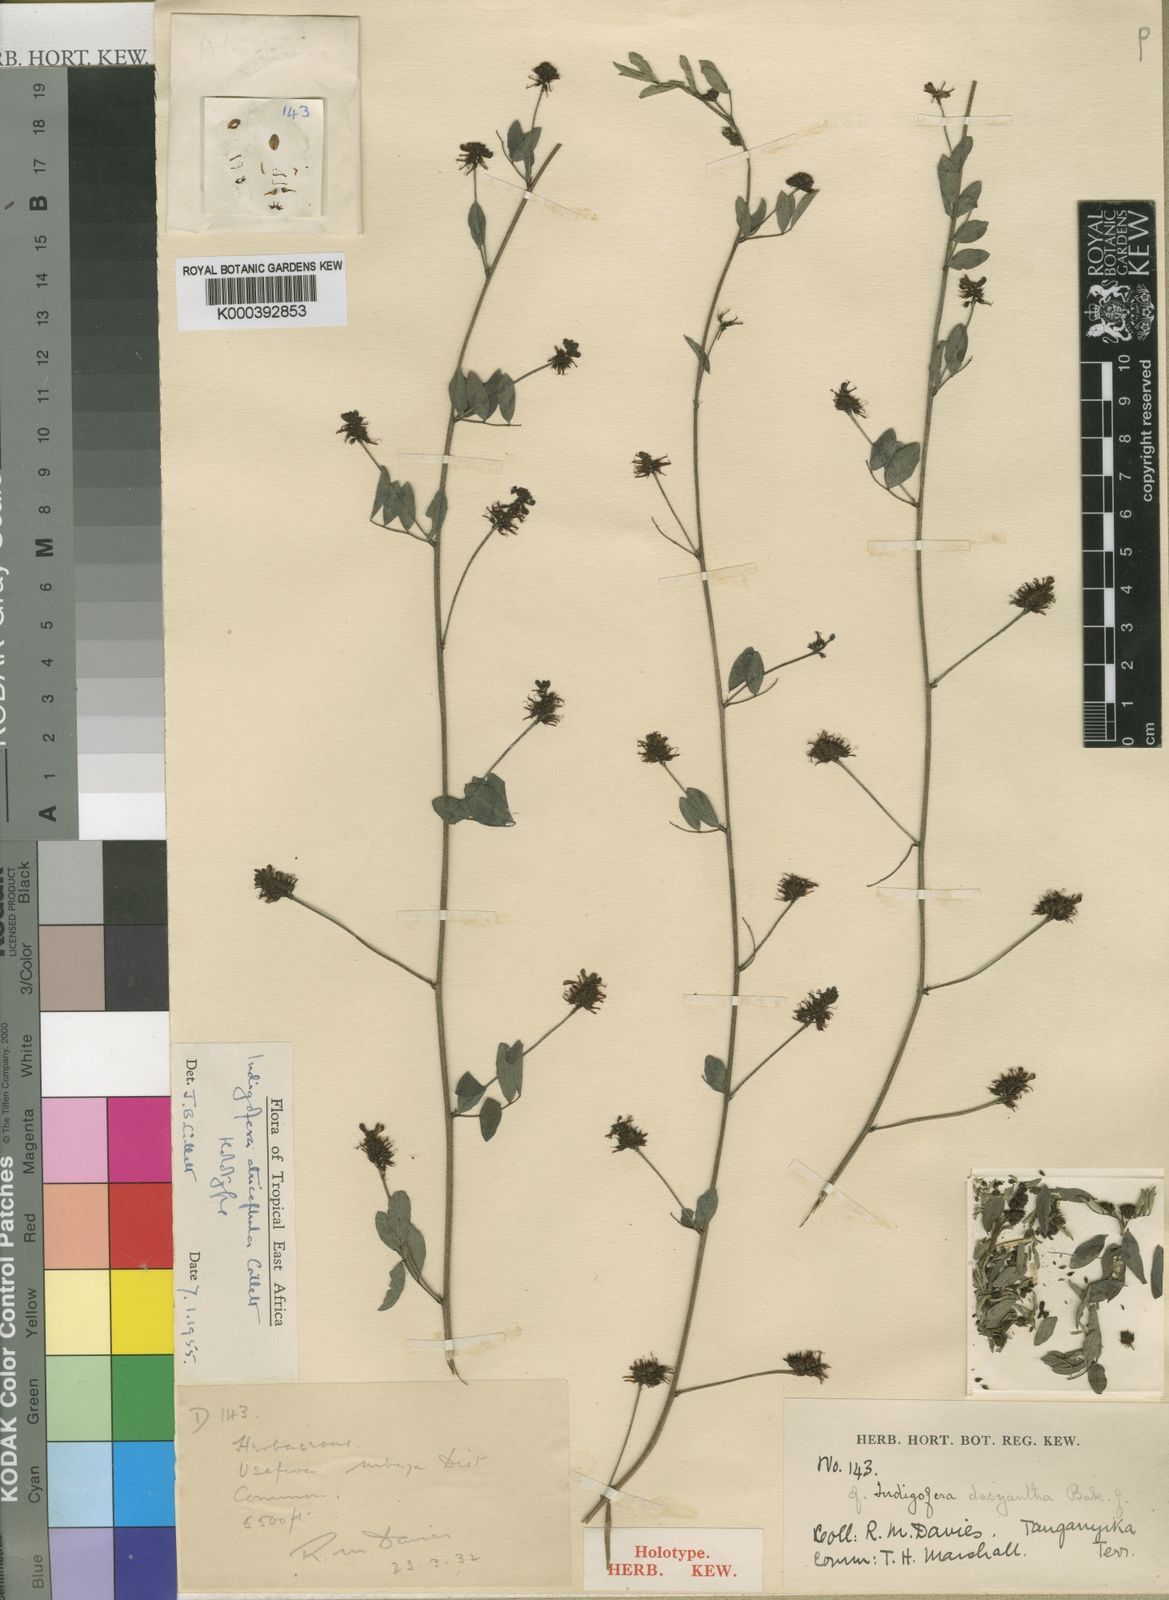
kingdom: Plantae
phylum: Tracheophyta
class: Magnoliopsida
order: Fabales
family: Fabaceae
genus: Indigofera
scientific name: Indigofera atricephala
